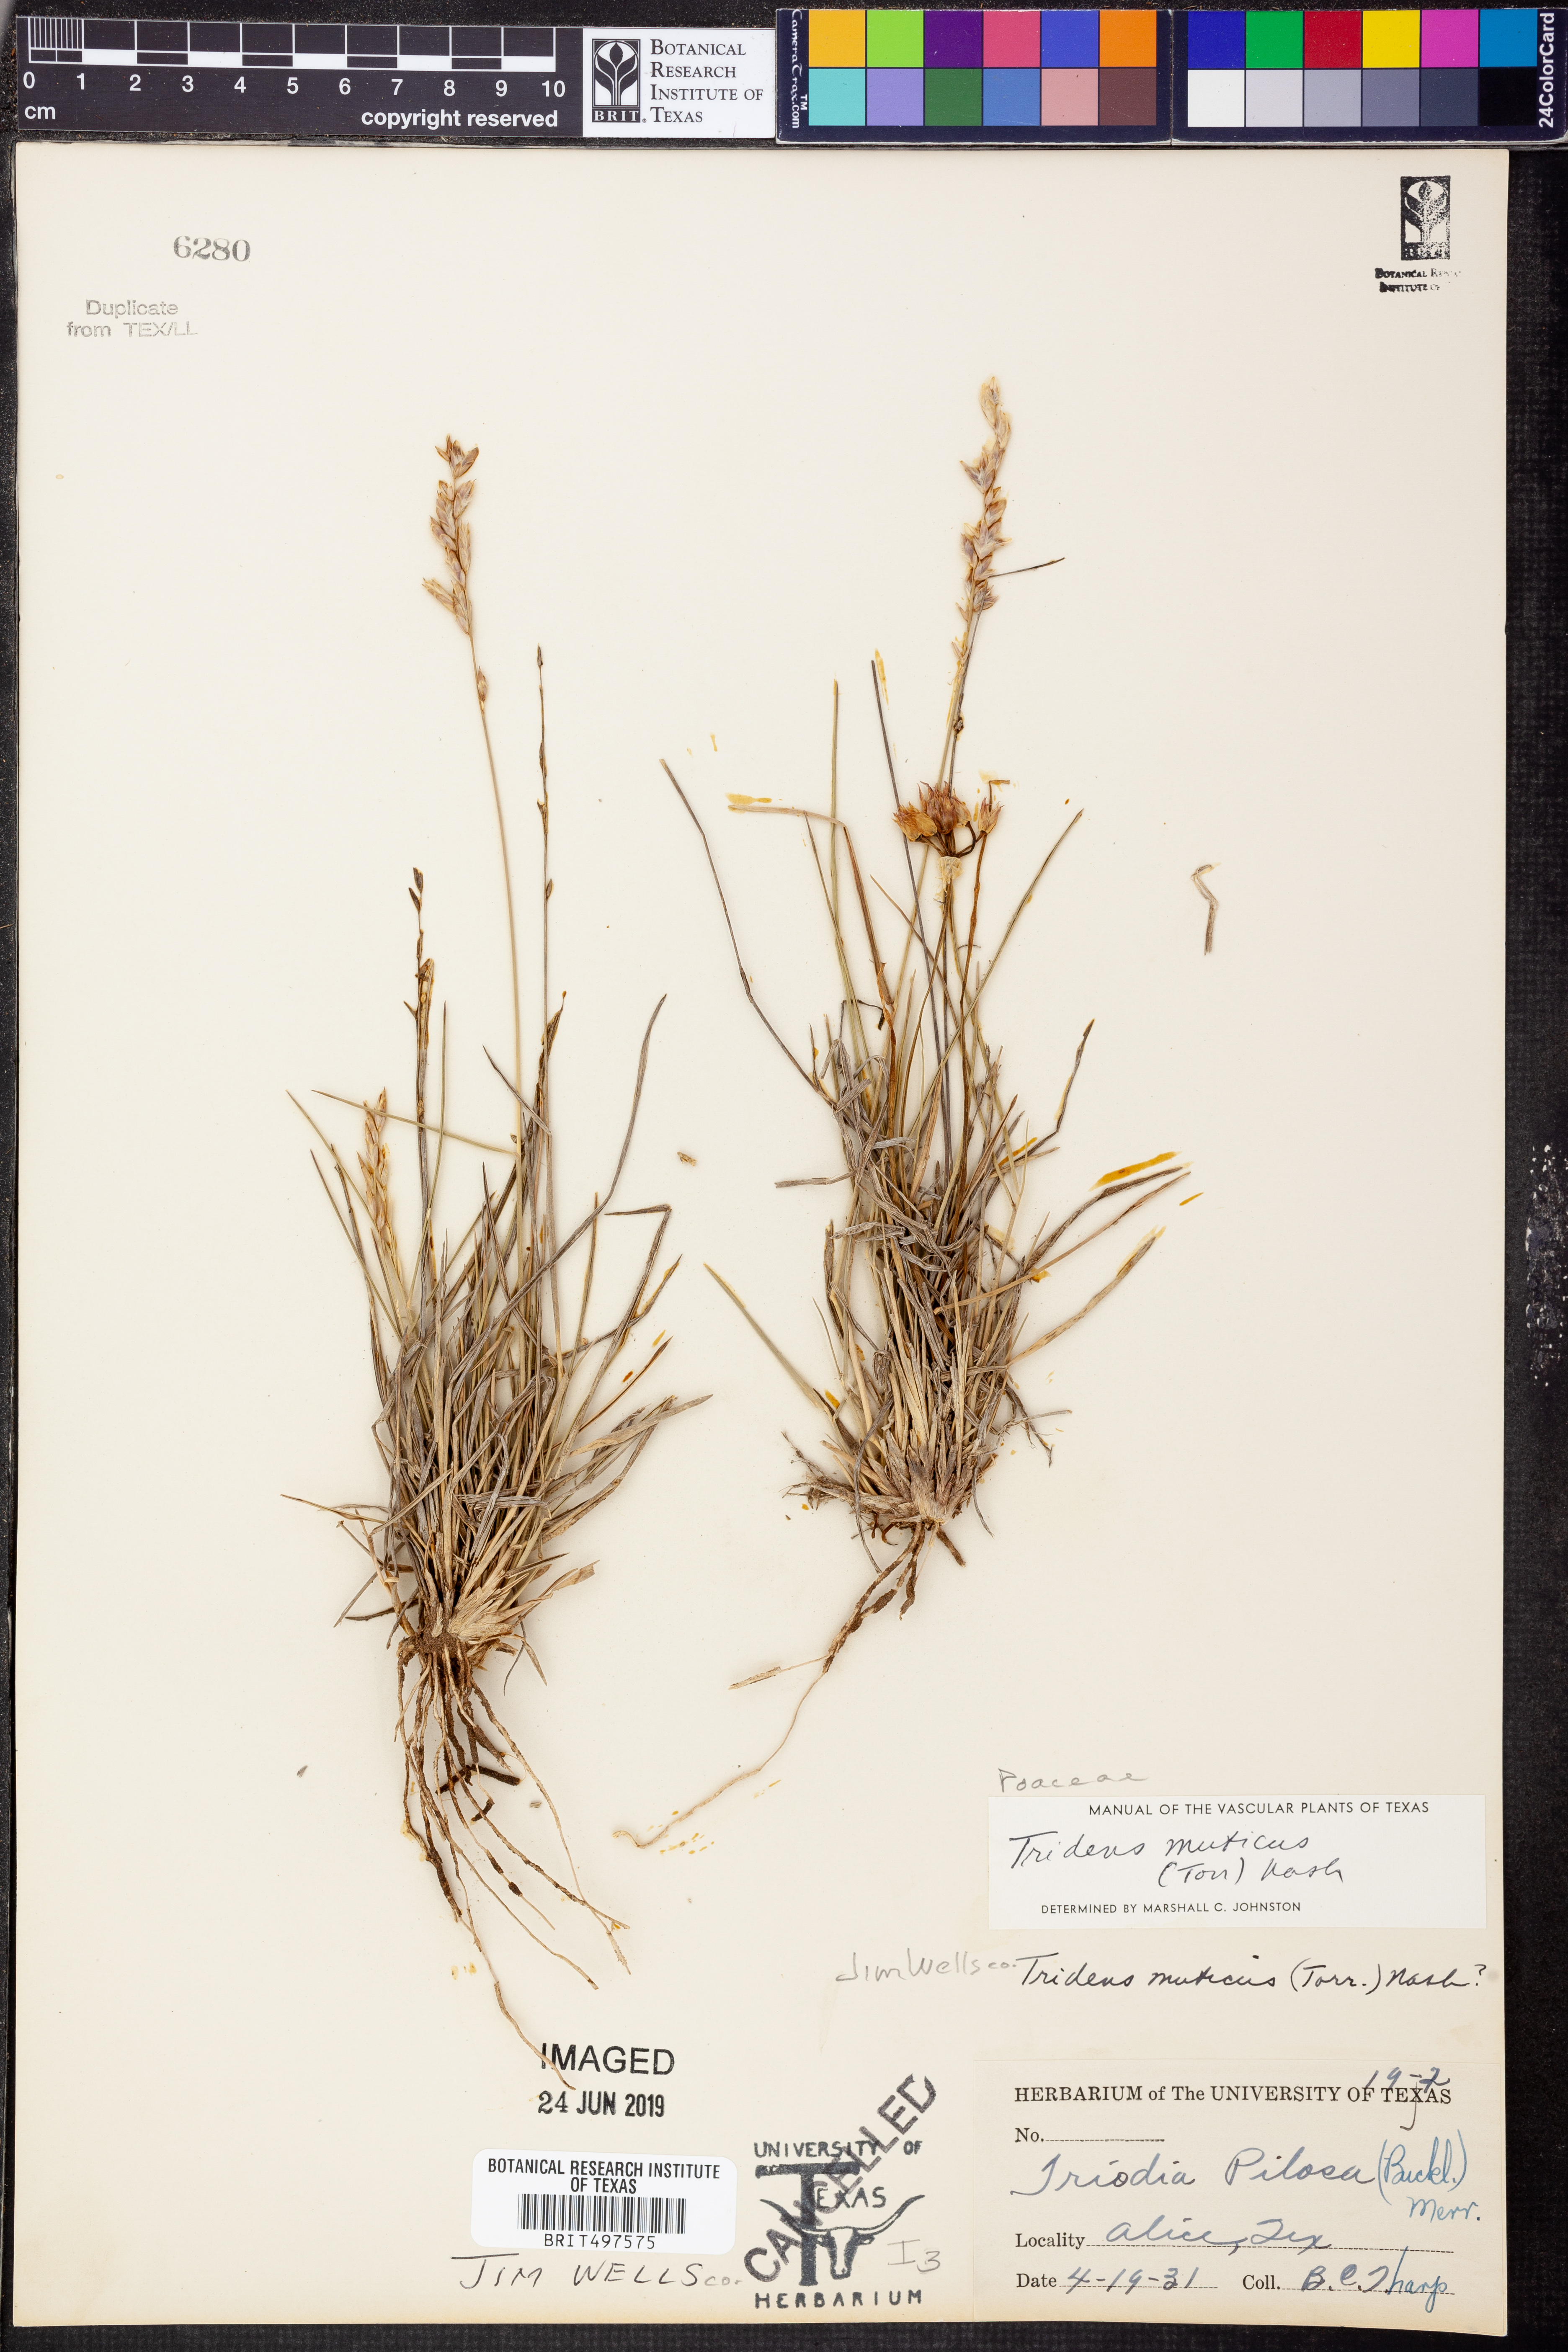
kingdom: Plantae
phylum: Tracheophyta
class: Liliopsida
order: Poales
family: Poaceae
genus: Tridentopsis
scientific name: Tridentopsis mutica
